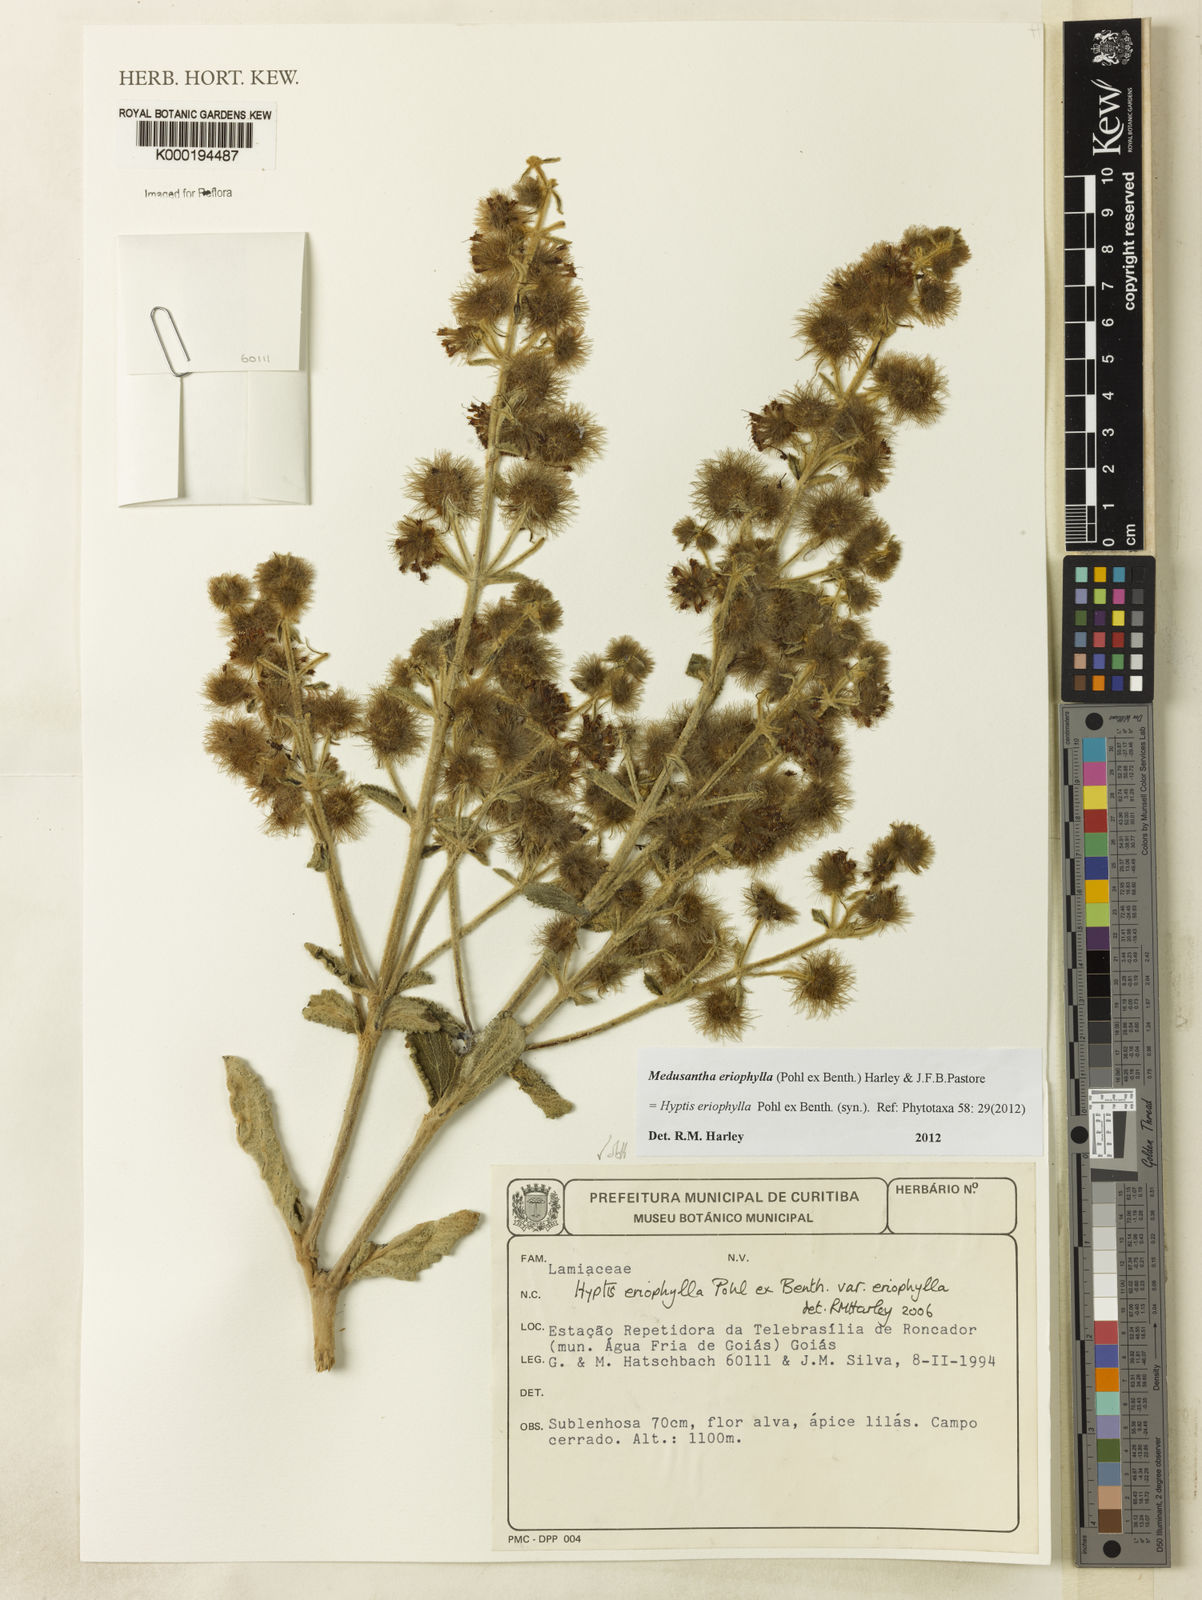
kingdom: Plantae
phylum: Tracheophyta
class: Magnoliopsida
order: Lamiales
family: Lamiaceae
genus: Medusantha
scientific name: Medusantha eriophylla
